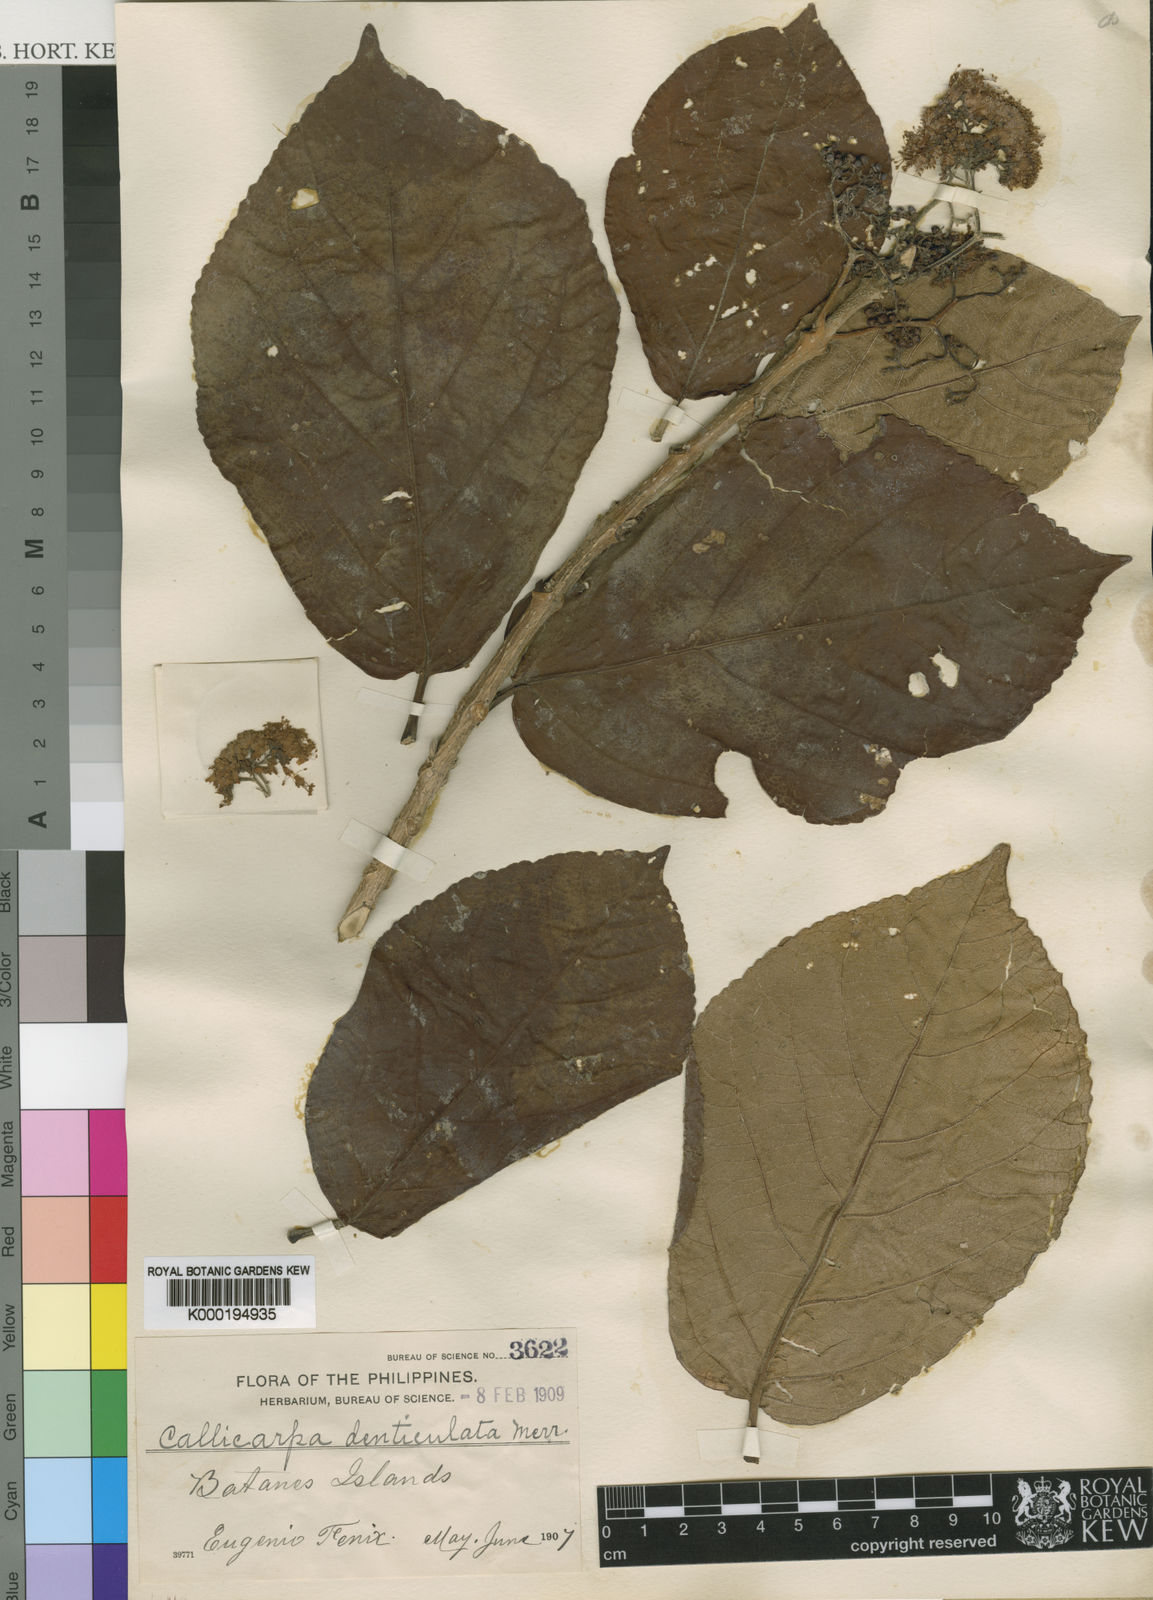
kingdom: Plantae
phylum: Tracheophyta
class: Magnoliopsida
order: Lamiales
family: Lamiaceae
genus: Callicarpa
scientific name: Callicarpa denticulata
